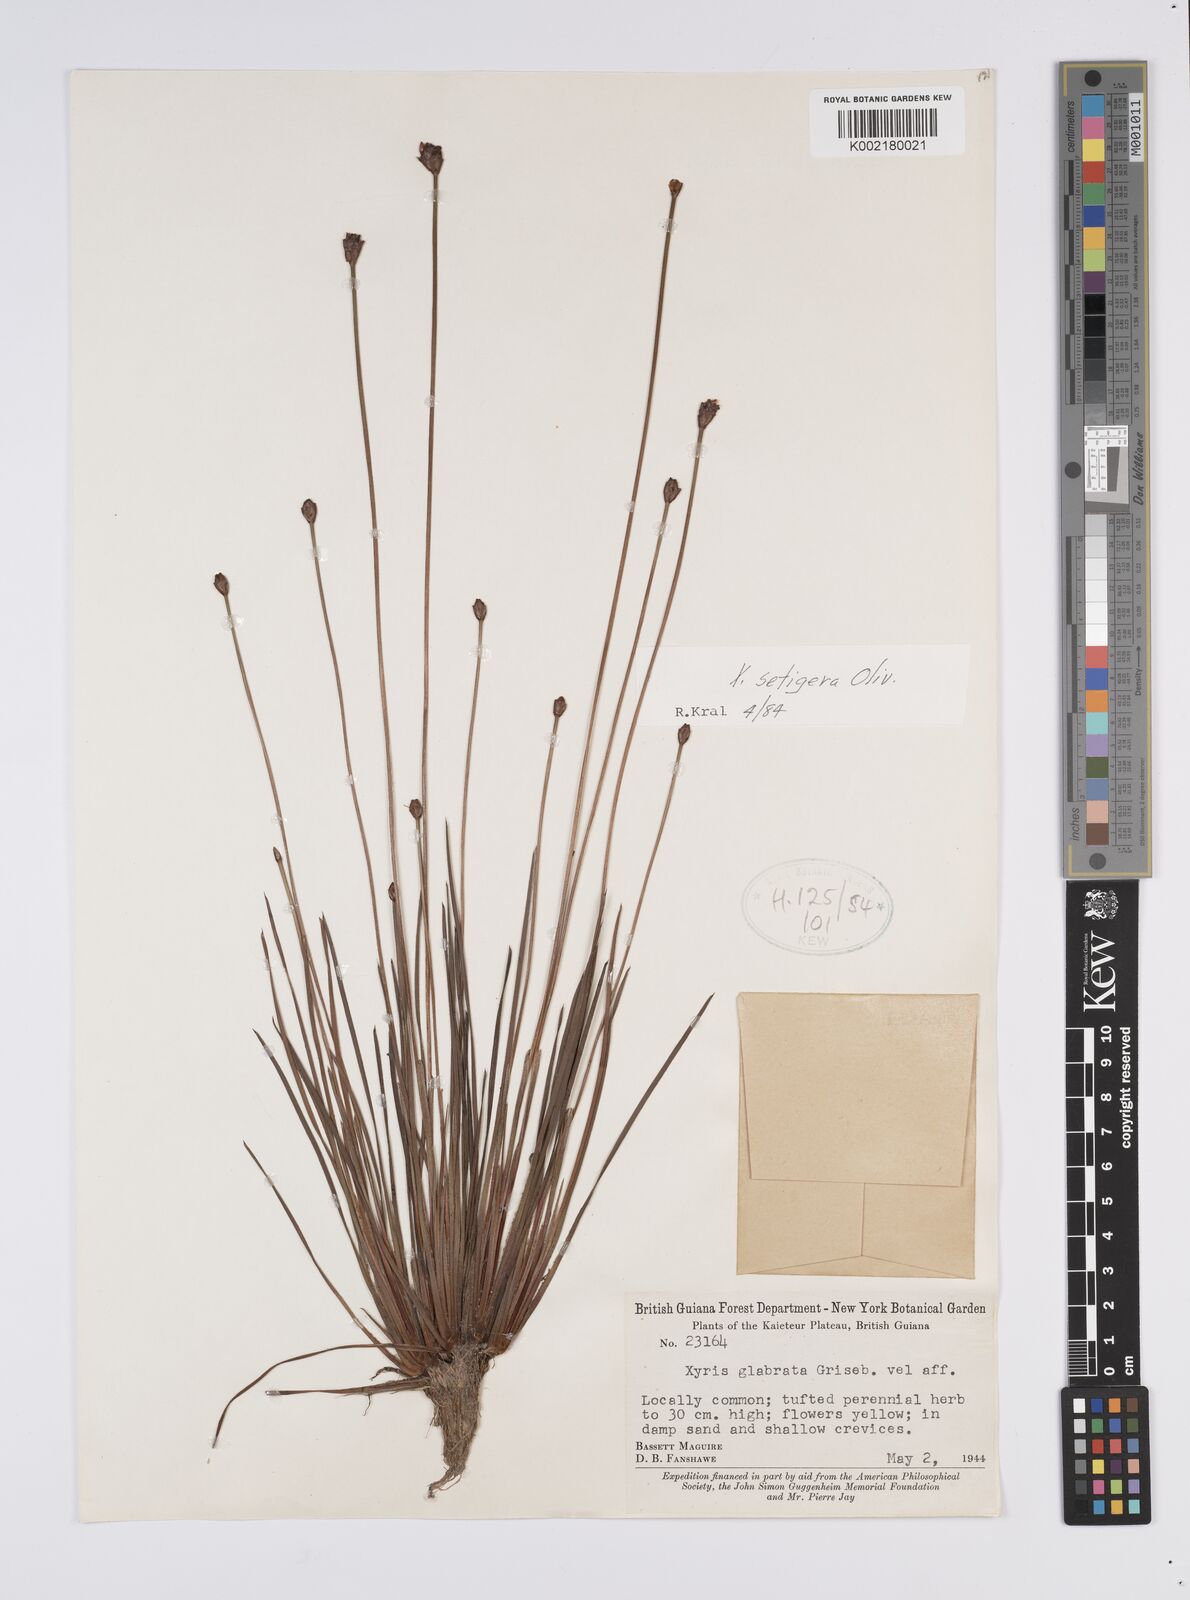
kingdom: Plantae
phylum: Tracheophyta
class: Liliopsida
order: Poales
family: Xyridaceae
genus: Xyris
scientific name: Xyris setigera
